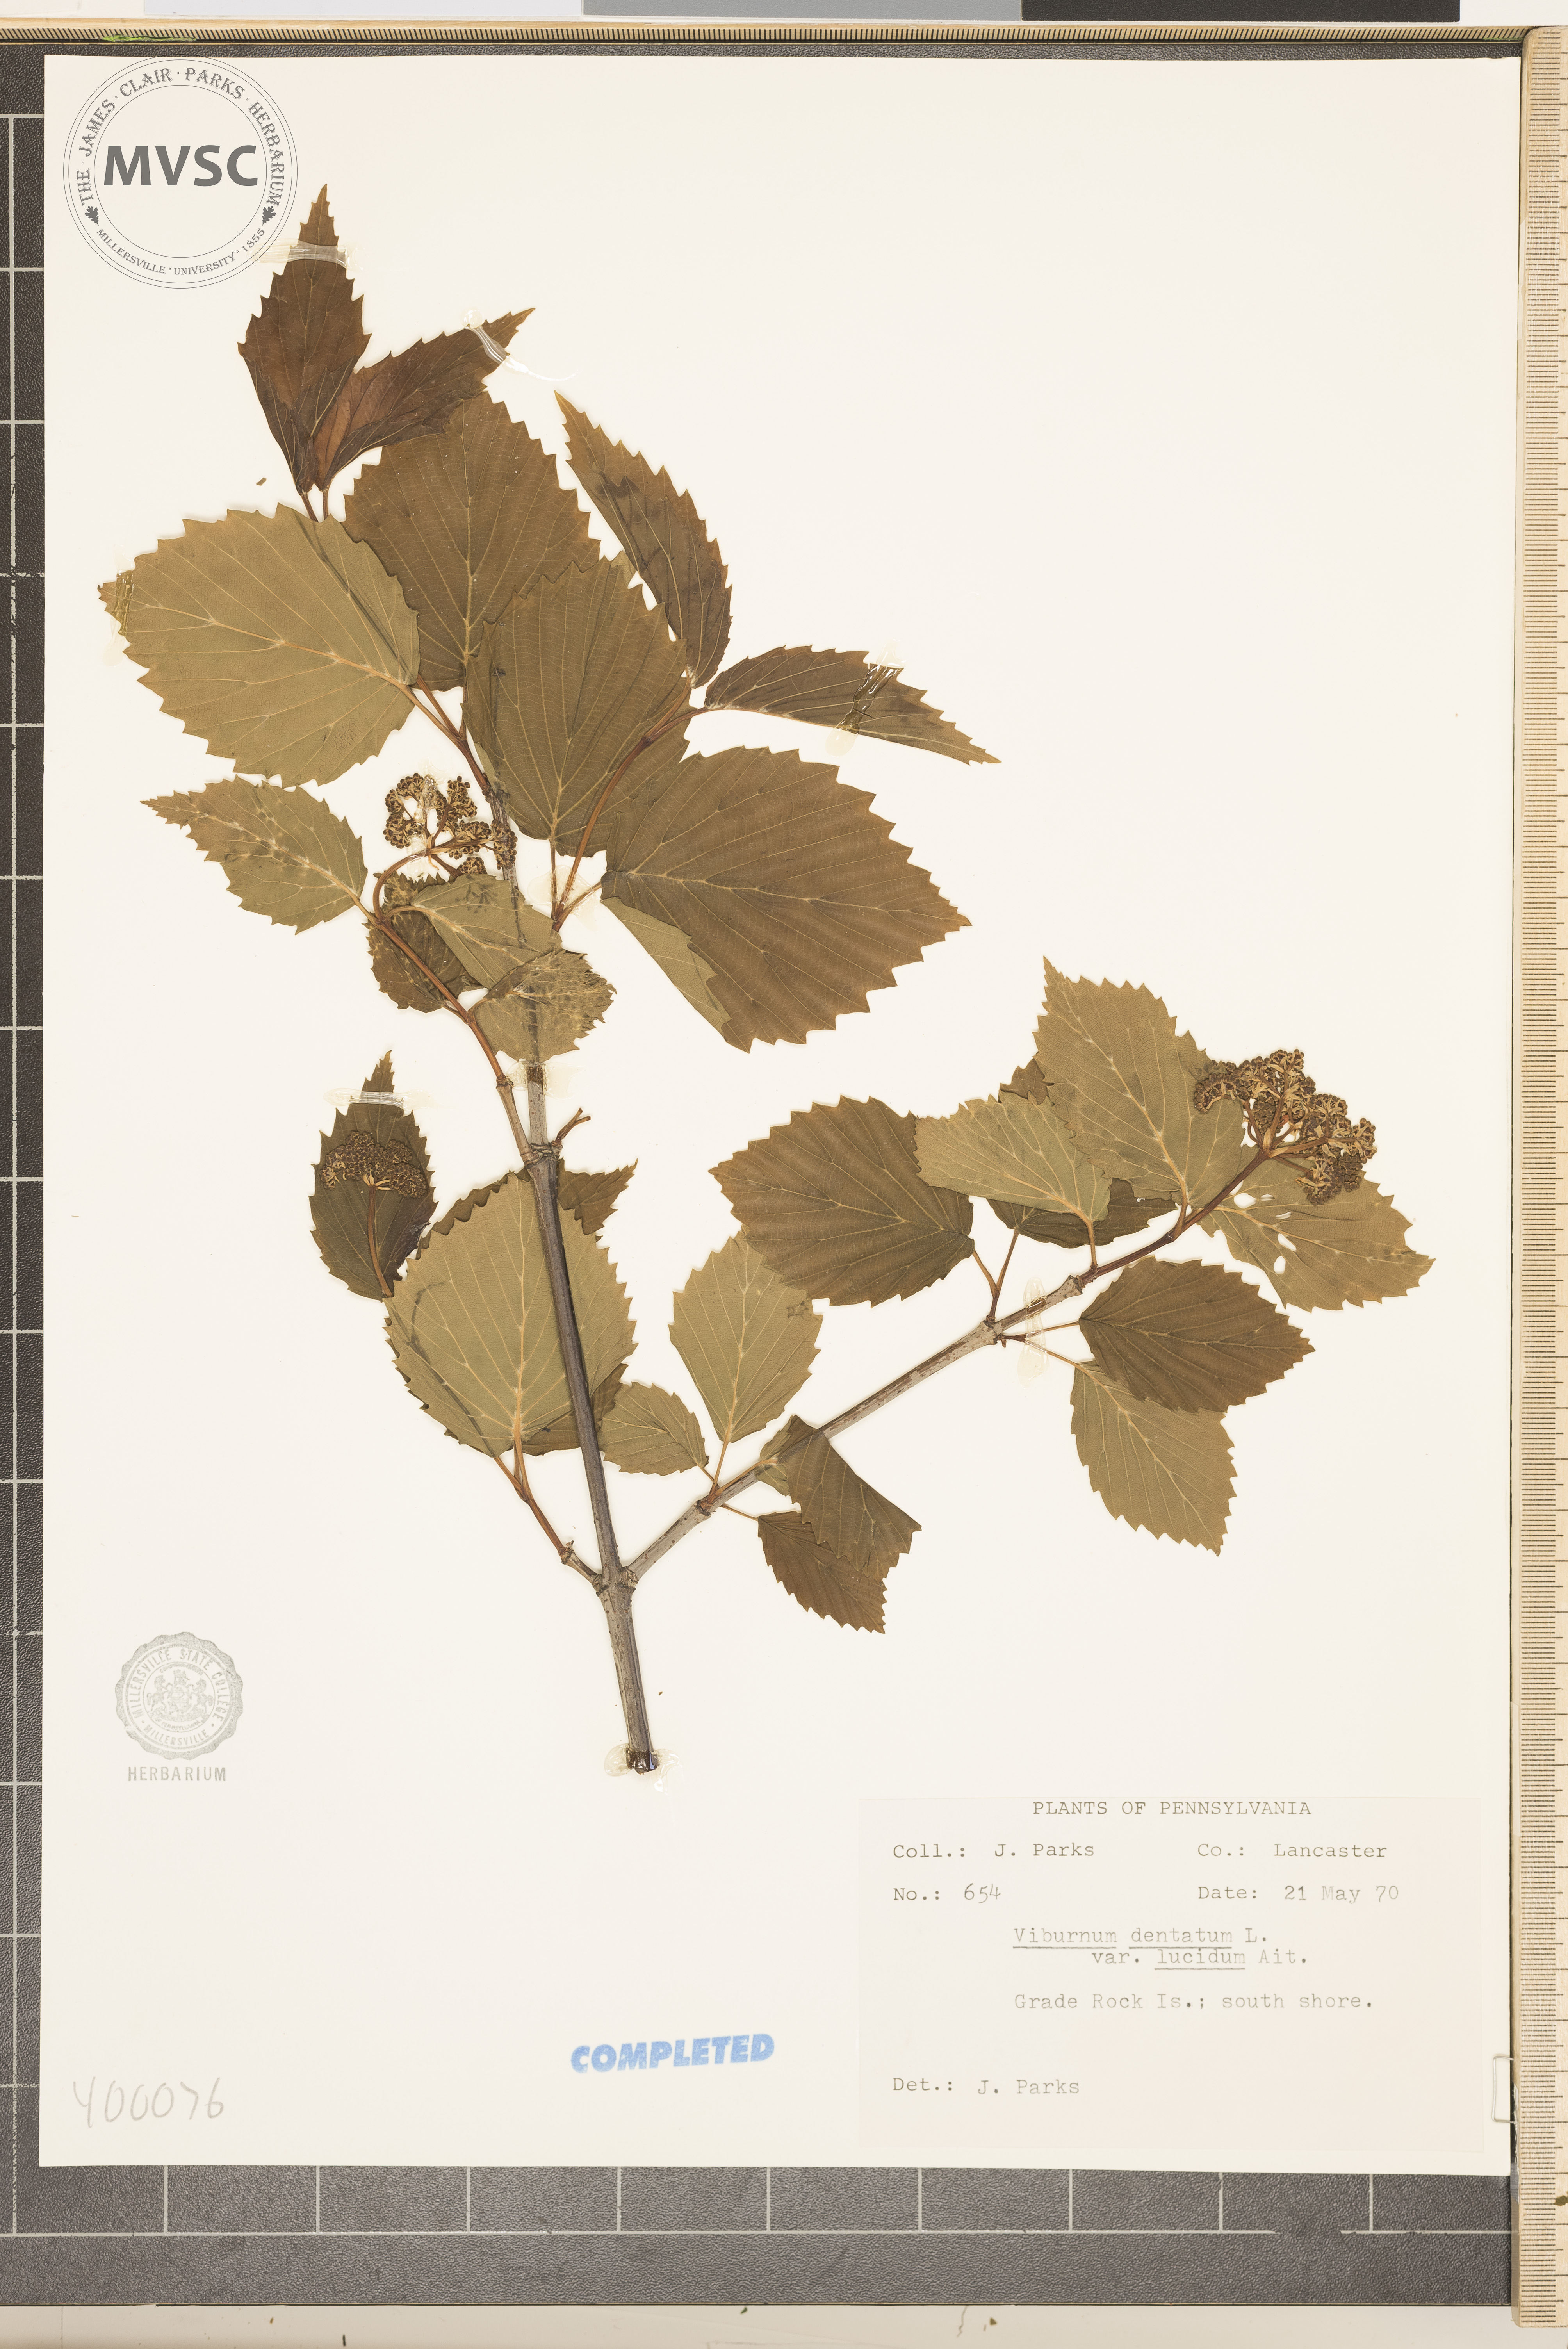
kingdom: Plantae
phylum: Tracheophyta
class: Magnoliopsida
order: Dipsacales
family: Viburnaceae
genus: Viburnum
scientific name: Viburnum dentatum
